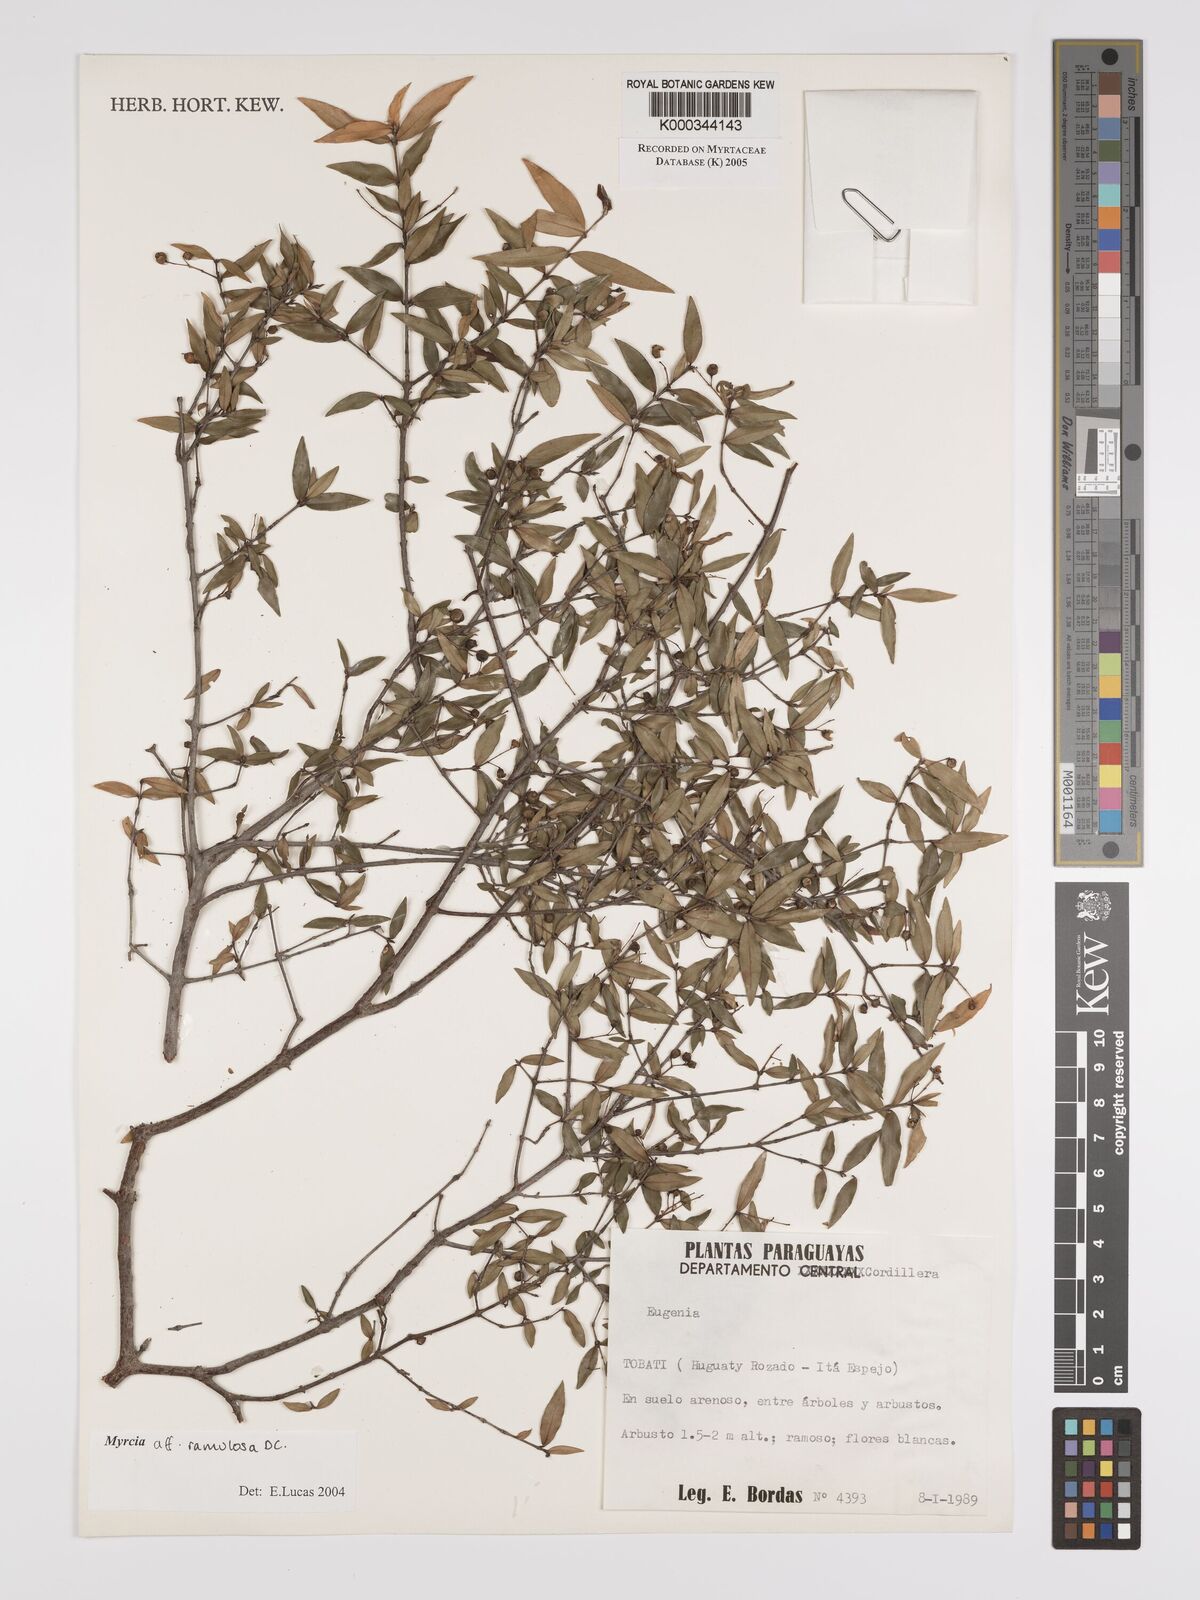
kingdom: Plantae
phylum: Tracheophyta
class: Magnoliopsida
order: Myrtales
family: Myrtaceae
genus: Myrcia
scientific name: Myrcia selloi
